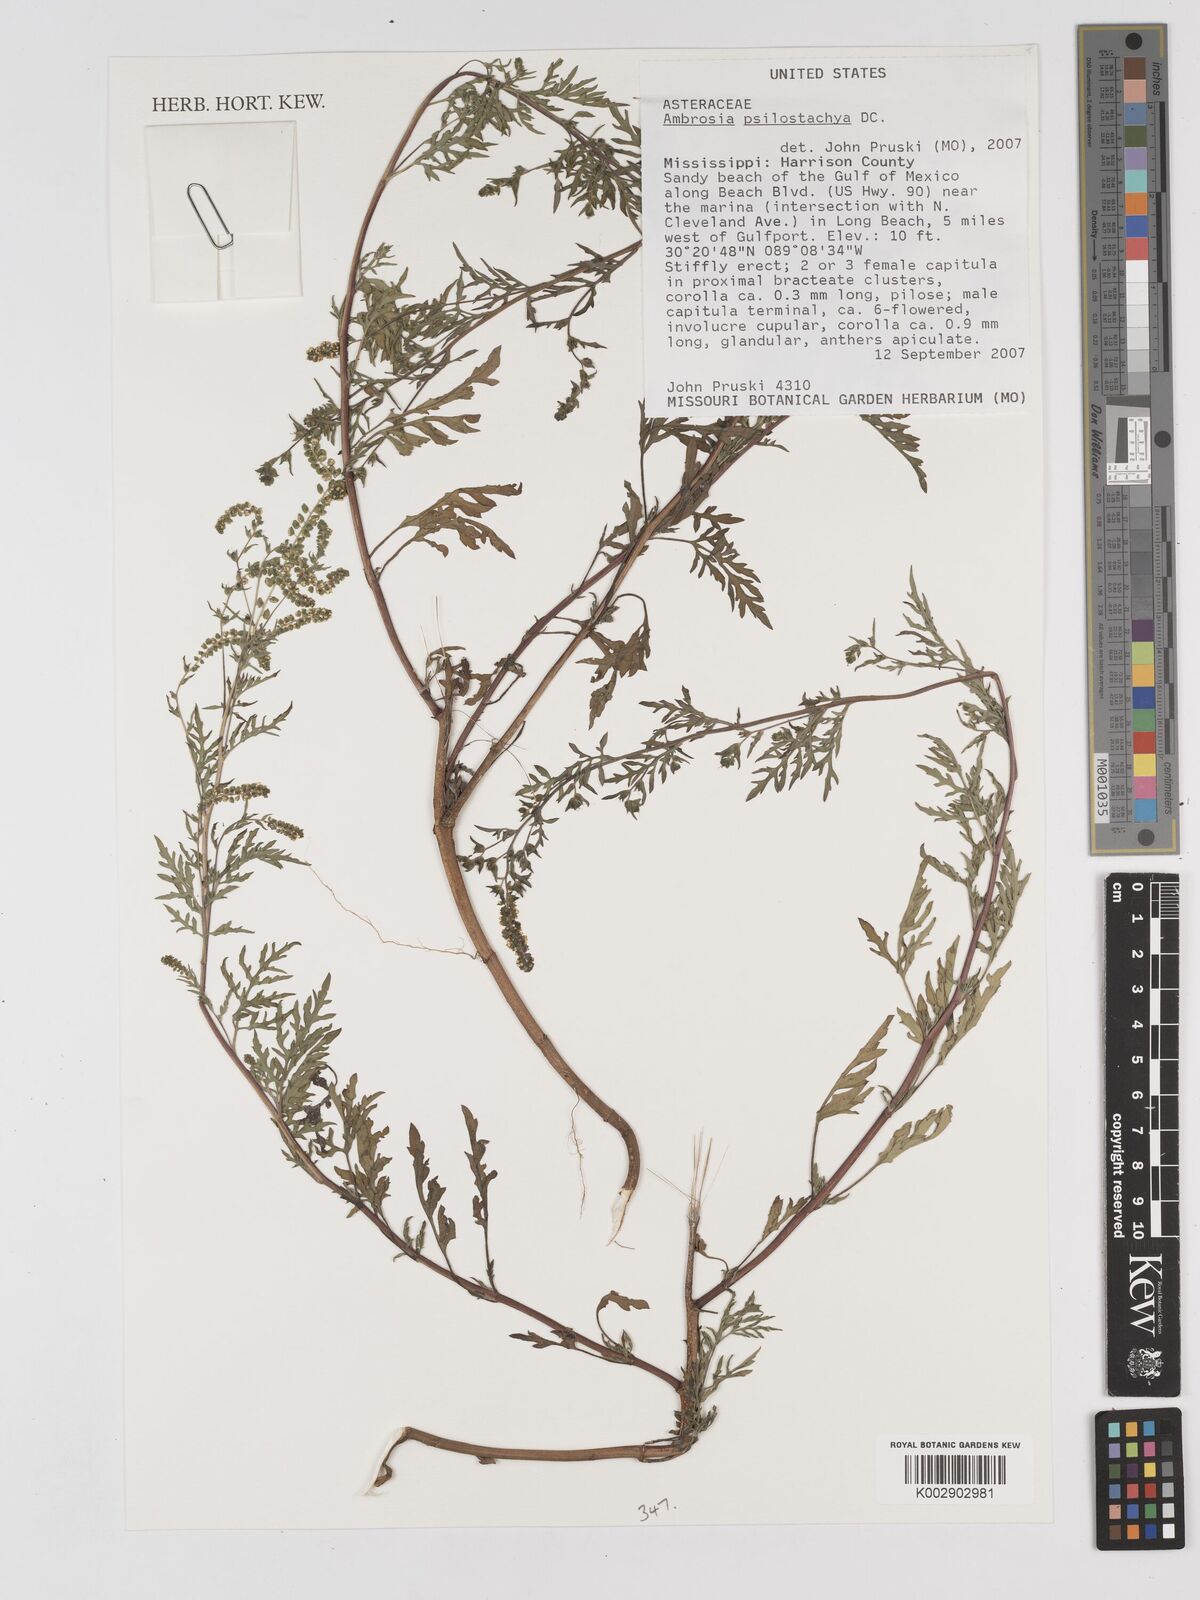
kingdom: Plantae
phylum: Tracheophyta
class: Magnoliopsida
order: Asterales
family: Asteraceae
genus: Ambrosia
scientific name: Ambrosia psilostachya
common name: Perennial ragweed
